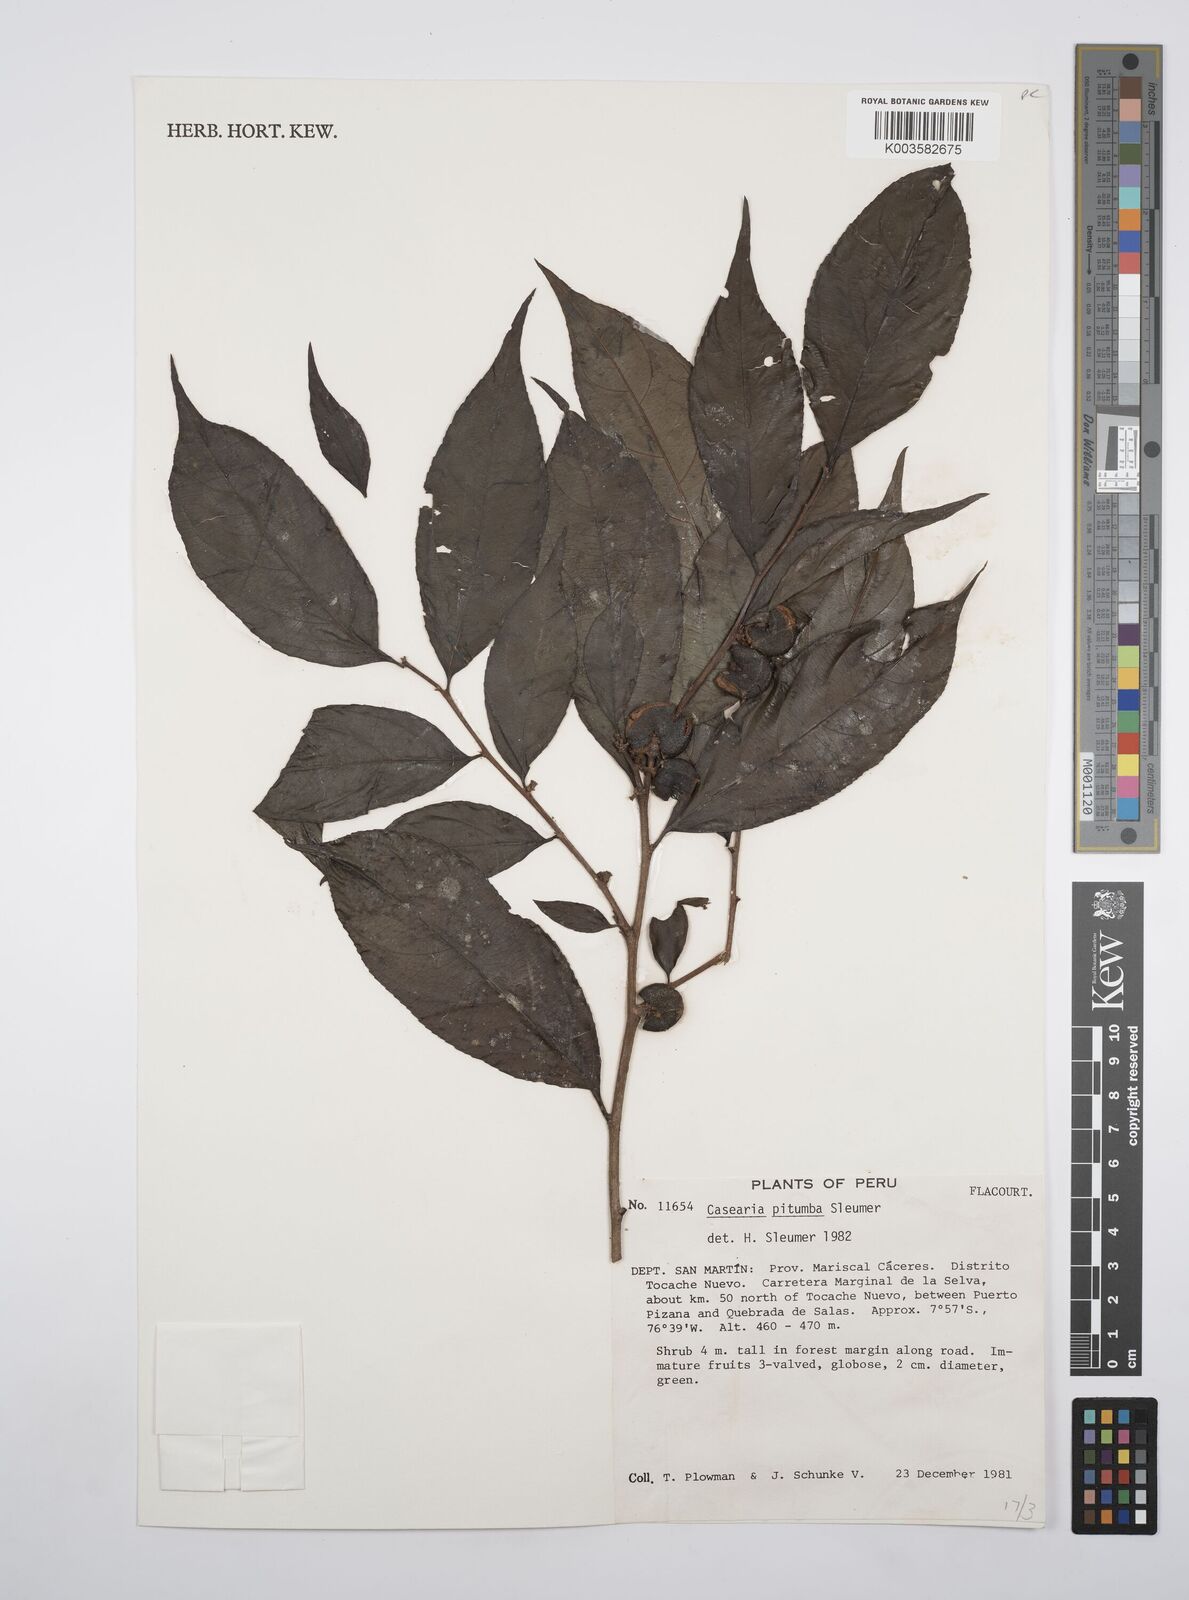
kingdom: Plantae
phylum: Tracheophyta
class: Magnoliopsida
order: Malpighiales
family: Salicaceae
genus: Casearia
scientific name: Casearia pitumba
